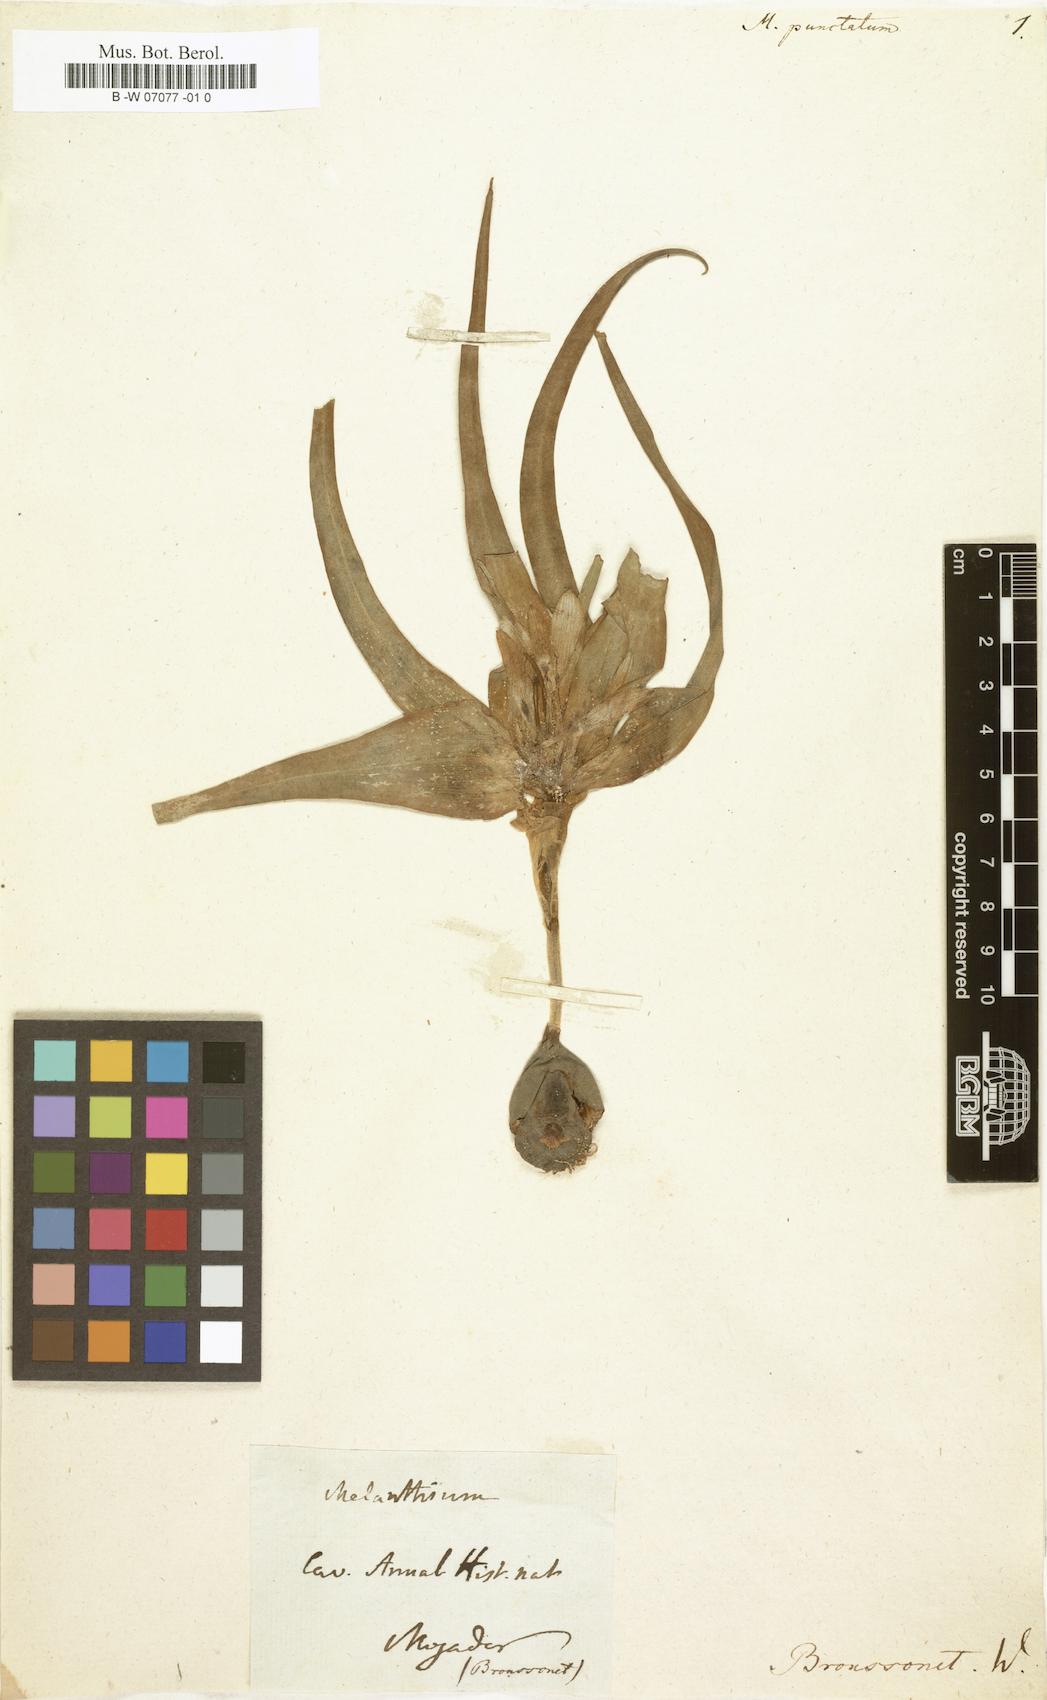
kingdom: Plantae
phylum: Tracheophyta
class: Liliopsida
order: Liliales
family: Colchicaceae
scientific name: Colchicaceae
